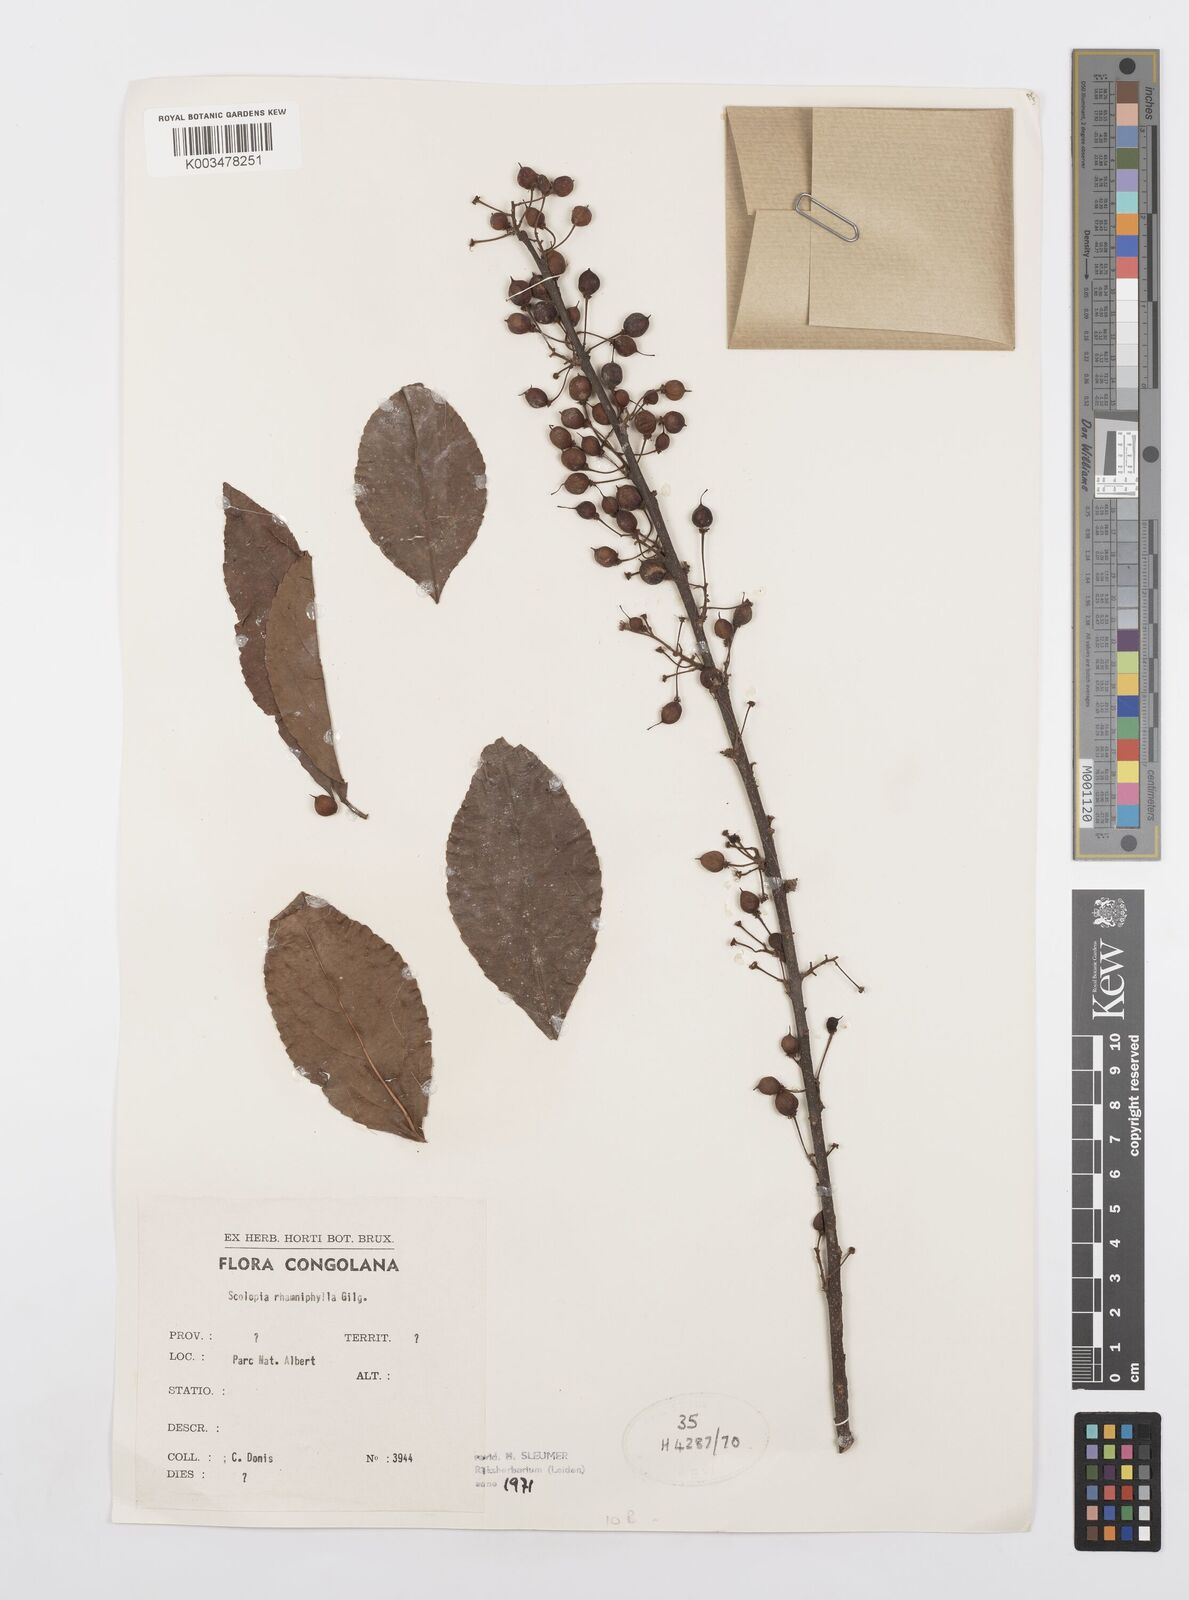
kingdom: Plantae
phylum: Tracheophyta
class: Magnoliopsida
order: Malpighiales
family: Salicaceae
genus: Scolopia
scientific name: Scolopia rhamniphylla
